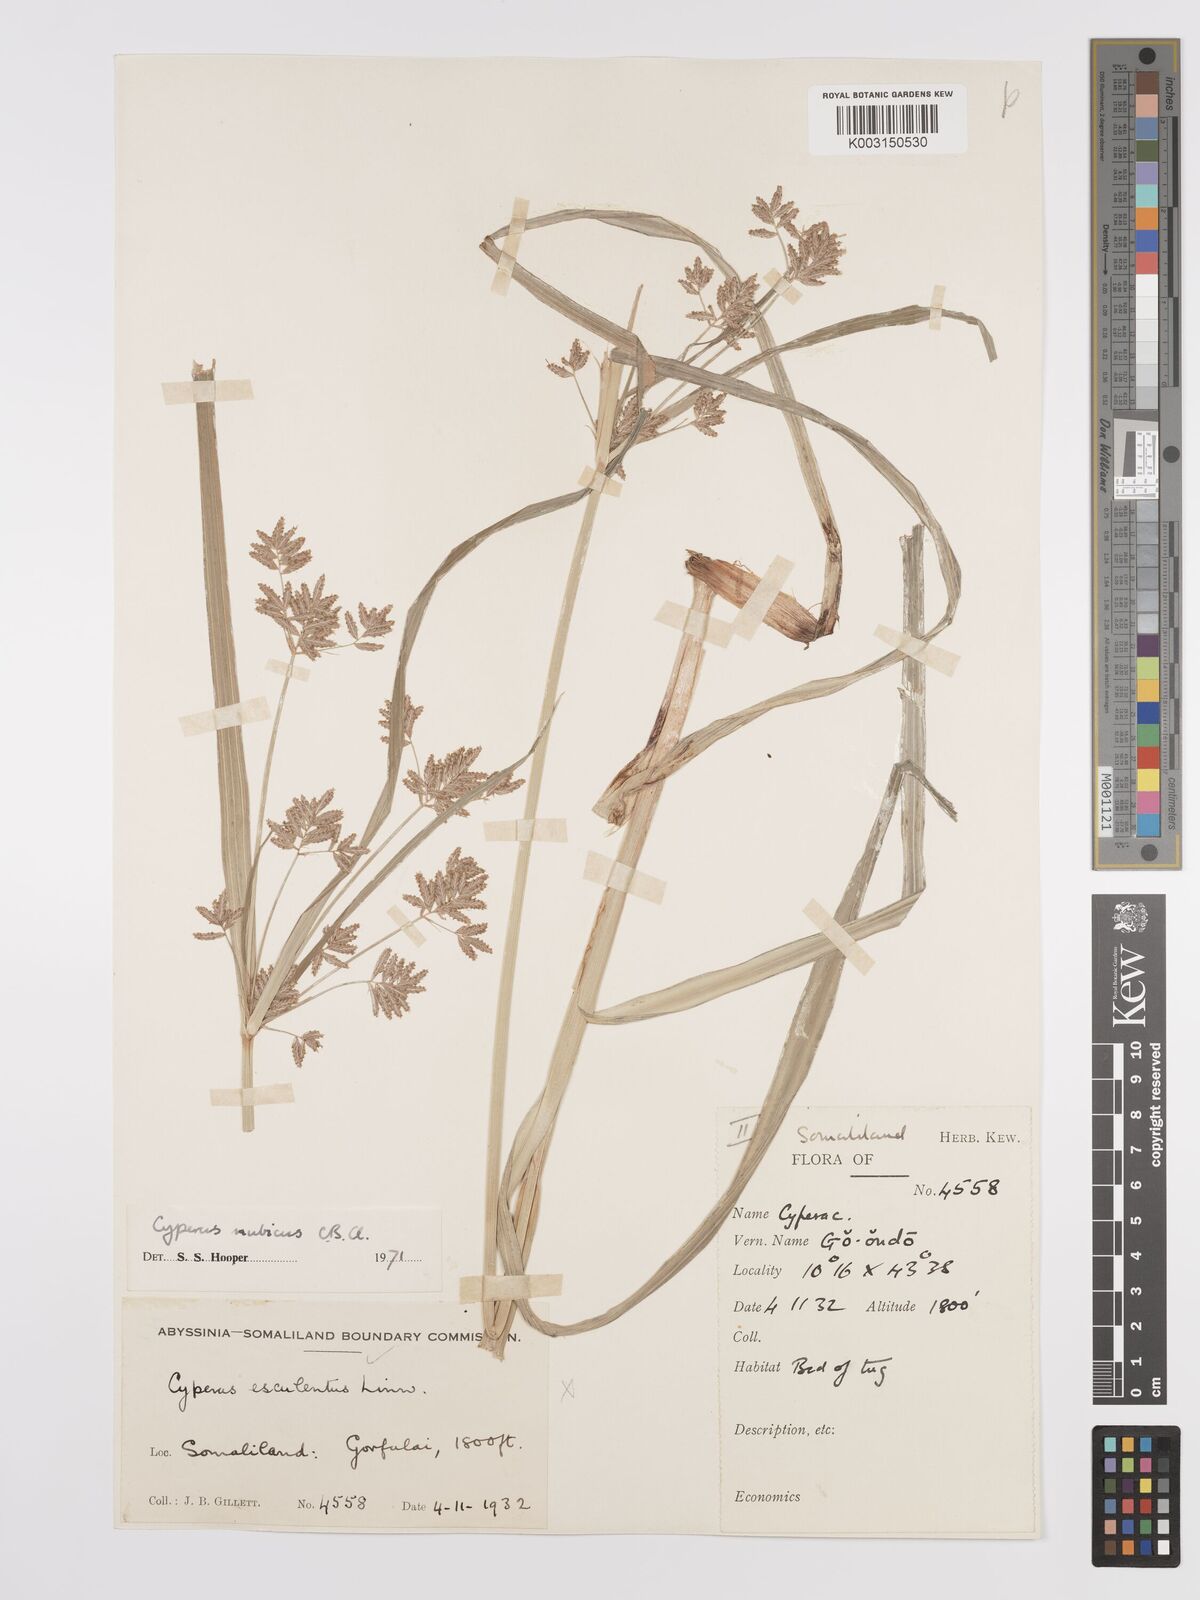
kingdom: Plantae
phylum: Tracheophyta
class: Liliopsida
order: Poales
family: Cyperaceae
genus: Cyperus
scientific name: Cyperus bifax
